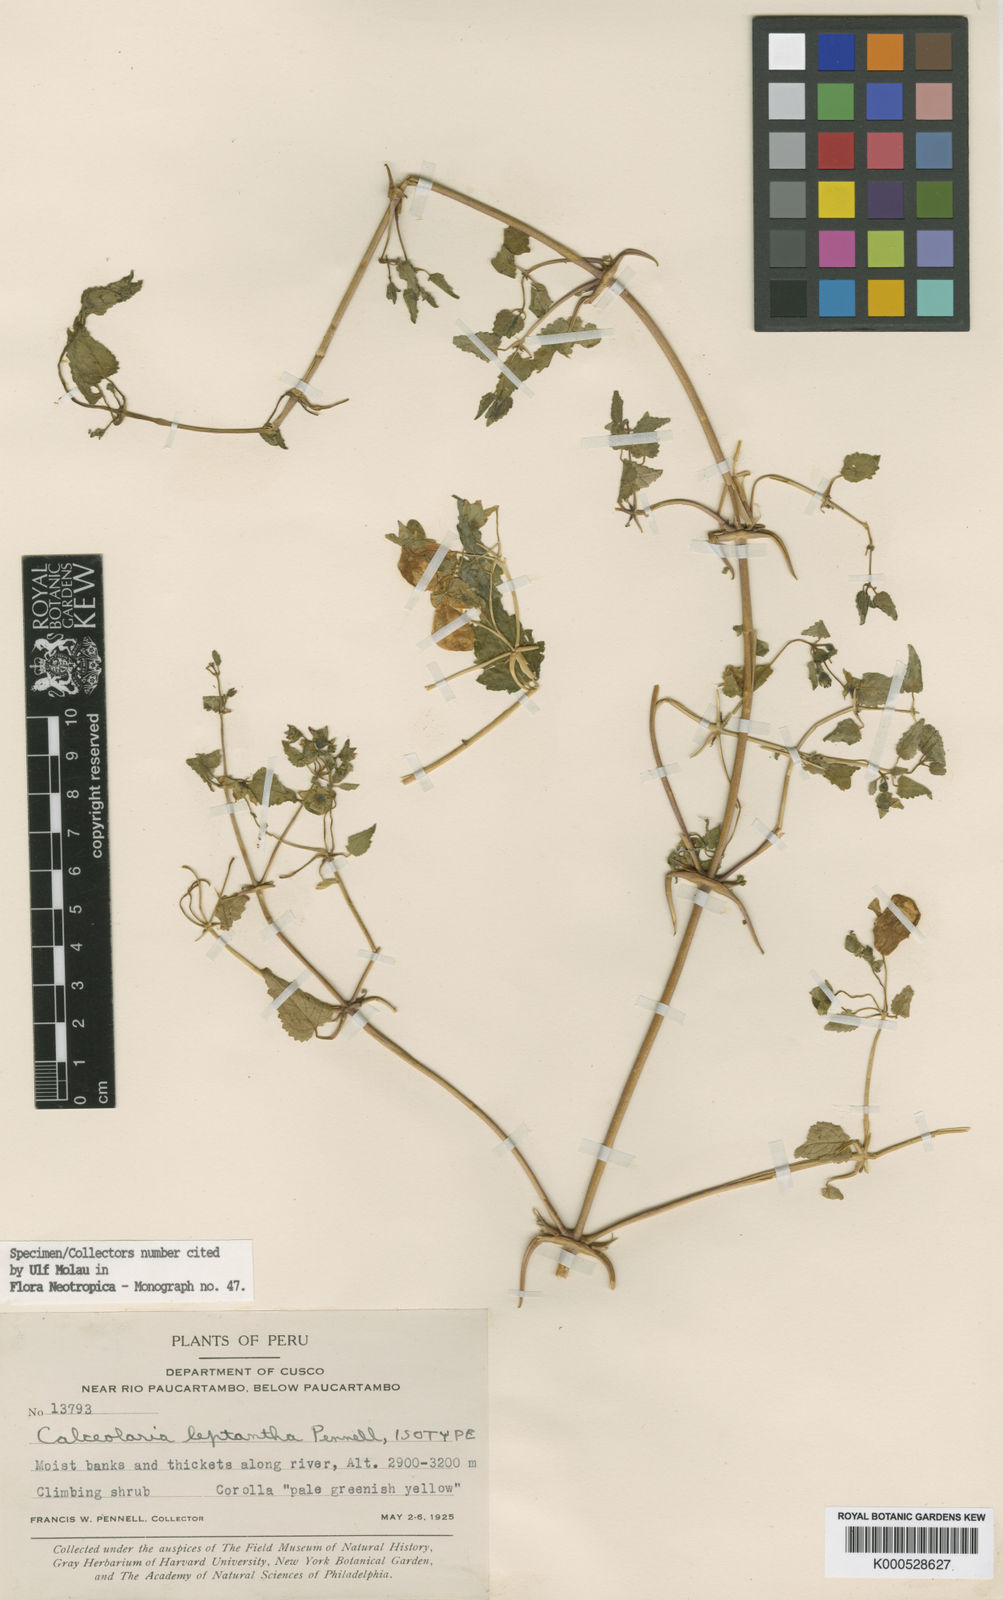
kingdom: Plantae
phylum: Tracheophyta
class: Magnoliopsida
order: Lamiales
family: Calceolariaceae
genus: Calceolaria
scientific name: Calceolaria leptantha
